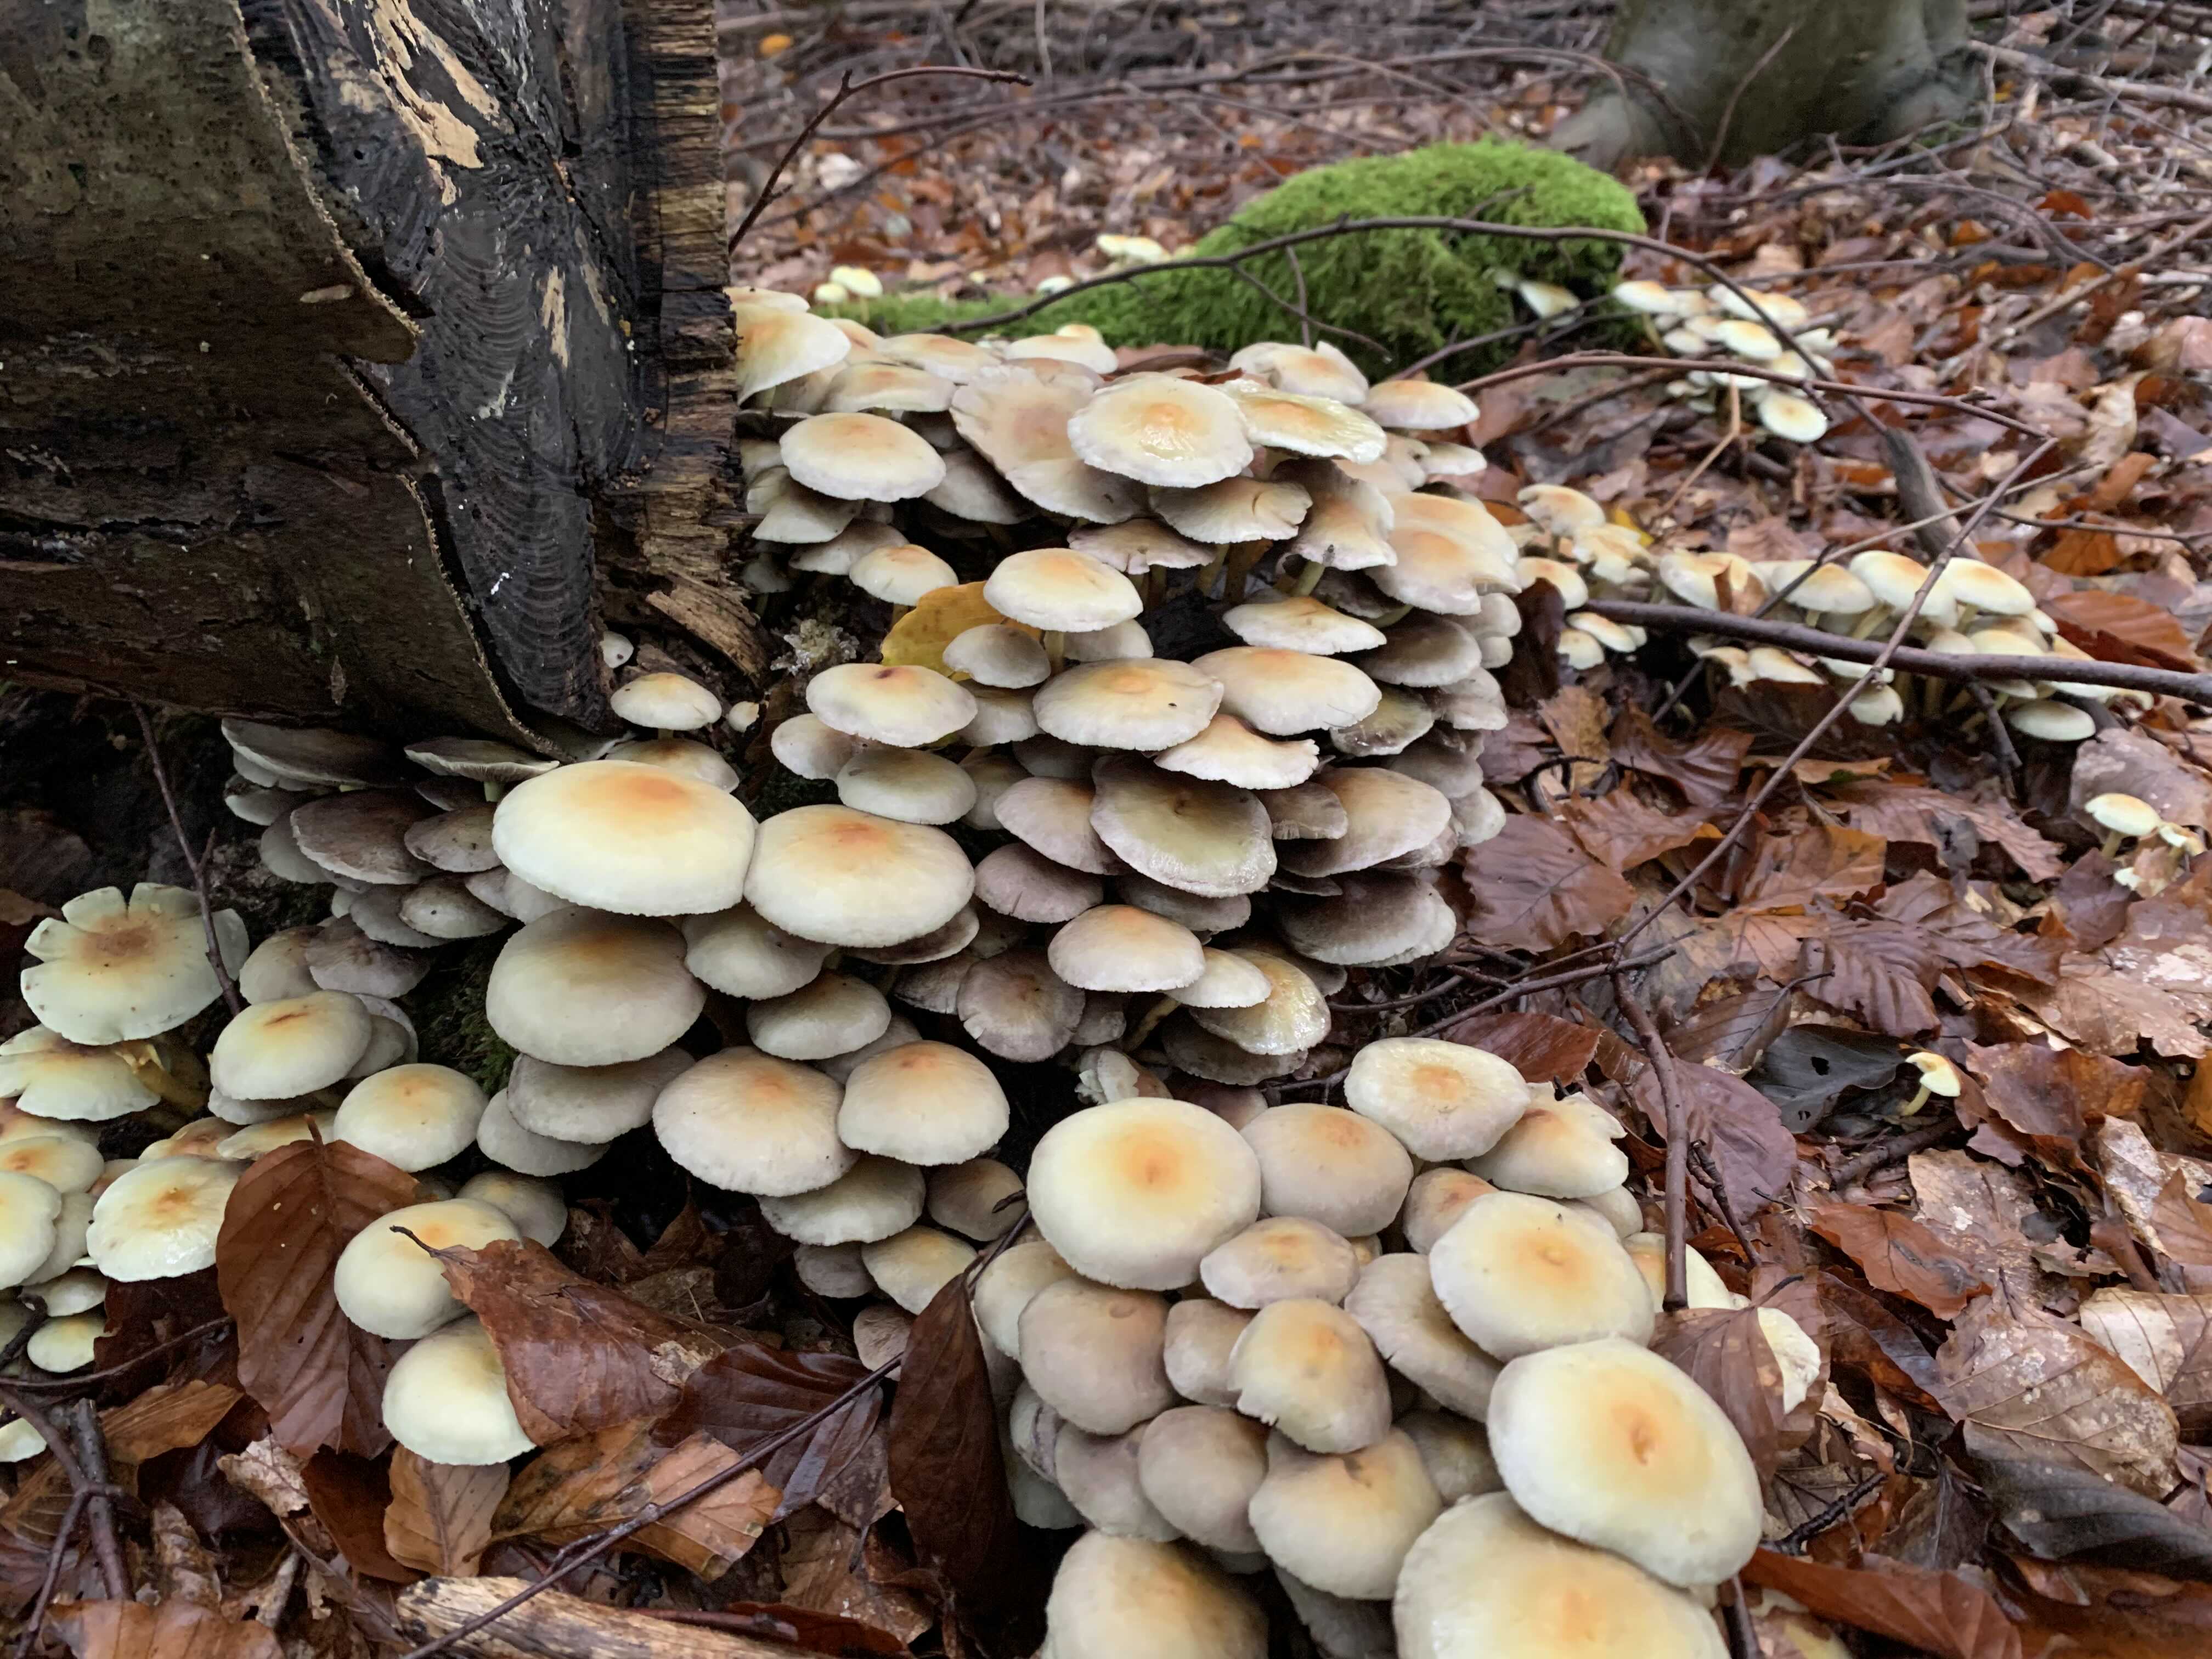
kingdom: Fungi
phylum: Basidiomycota
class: Agaricomycetes
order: Agaricales
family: Strophariaceae
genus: Hypholoma
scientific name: Hypholoma fasciculare
